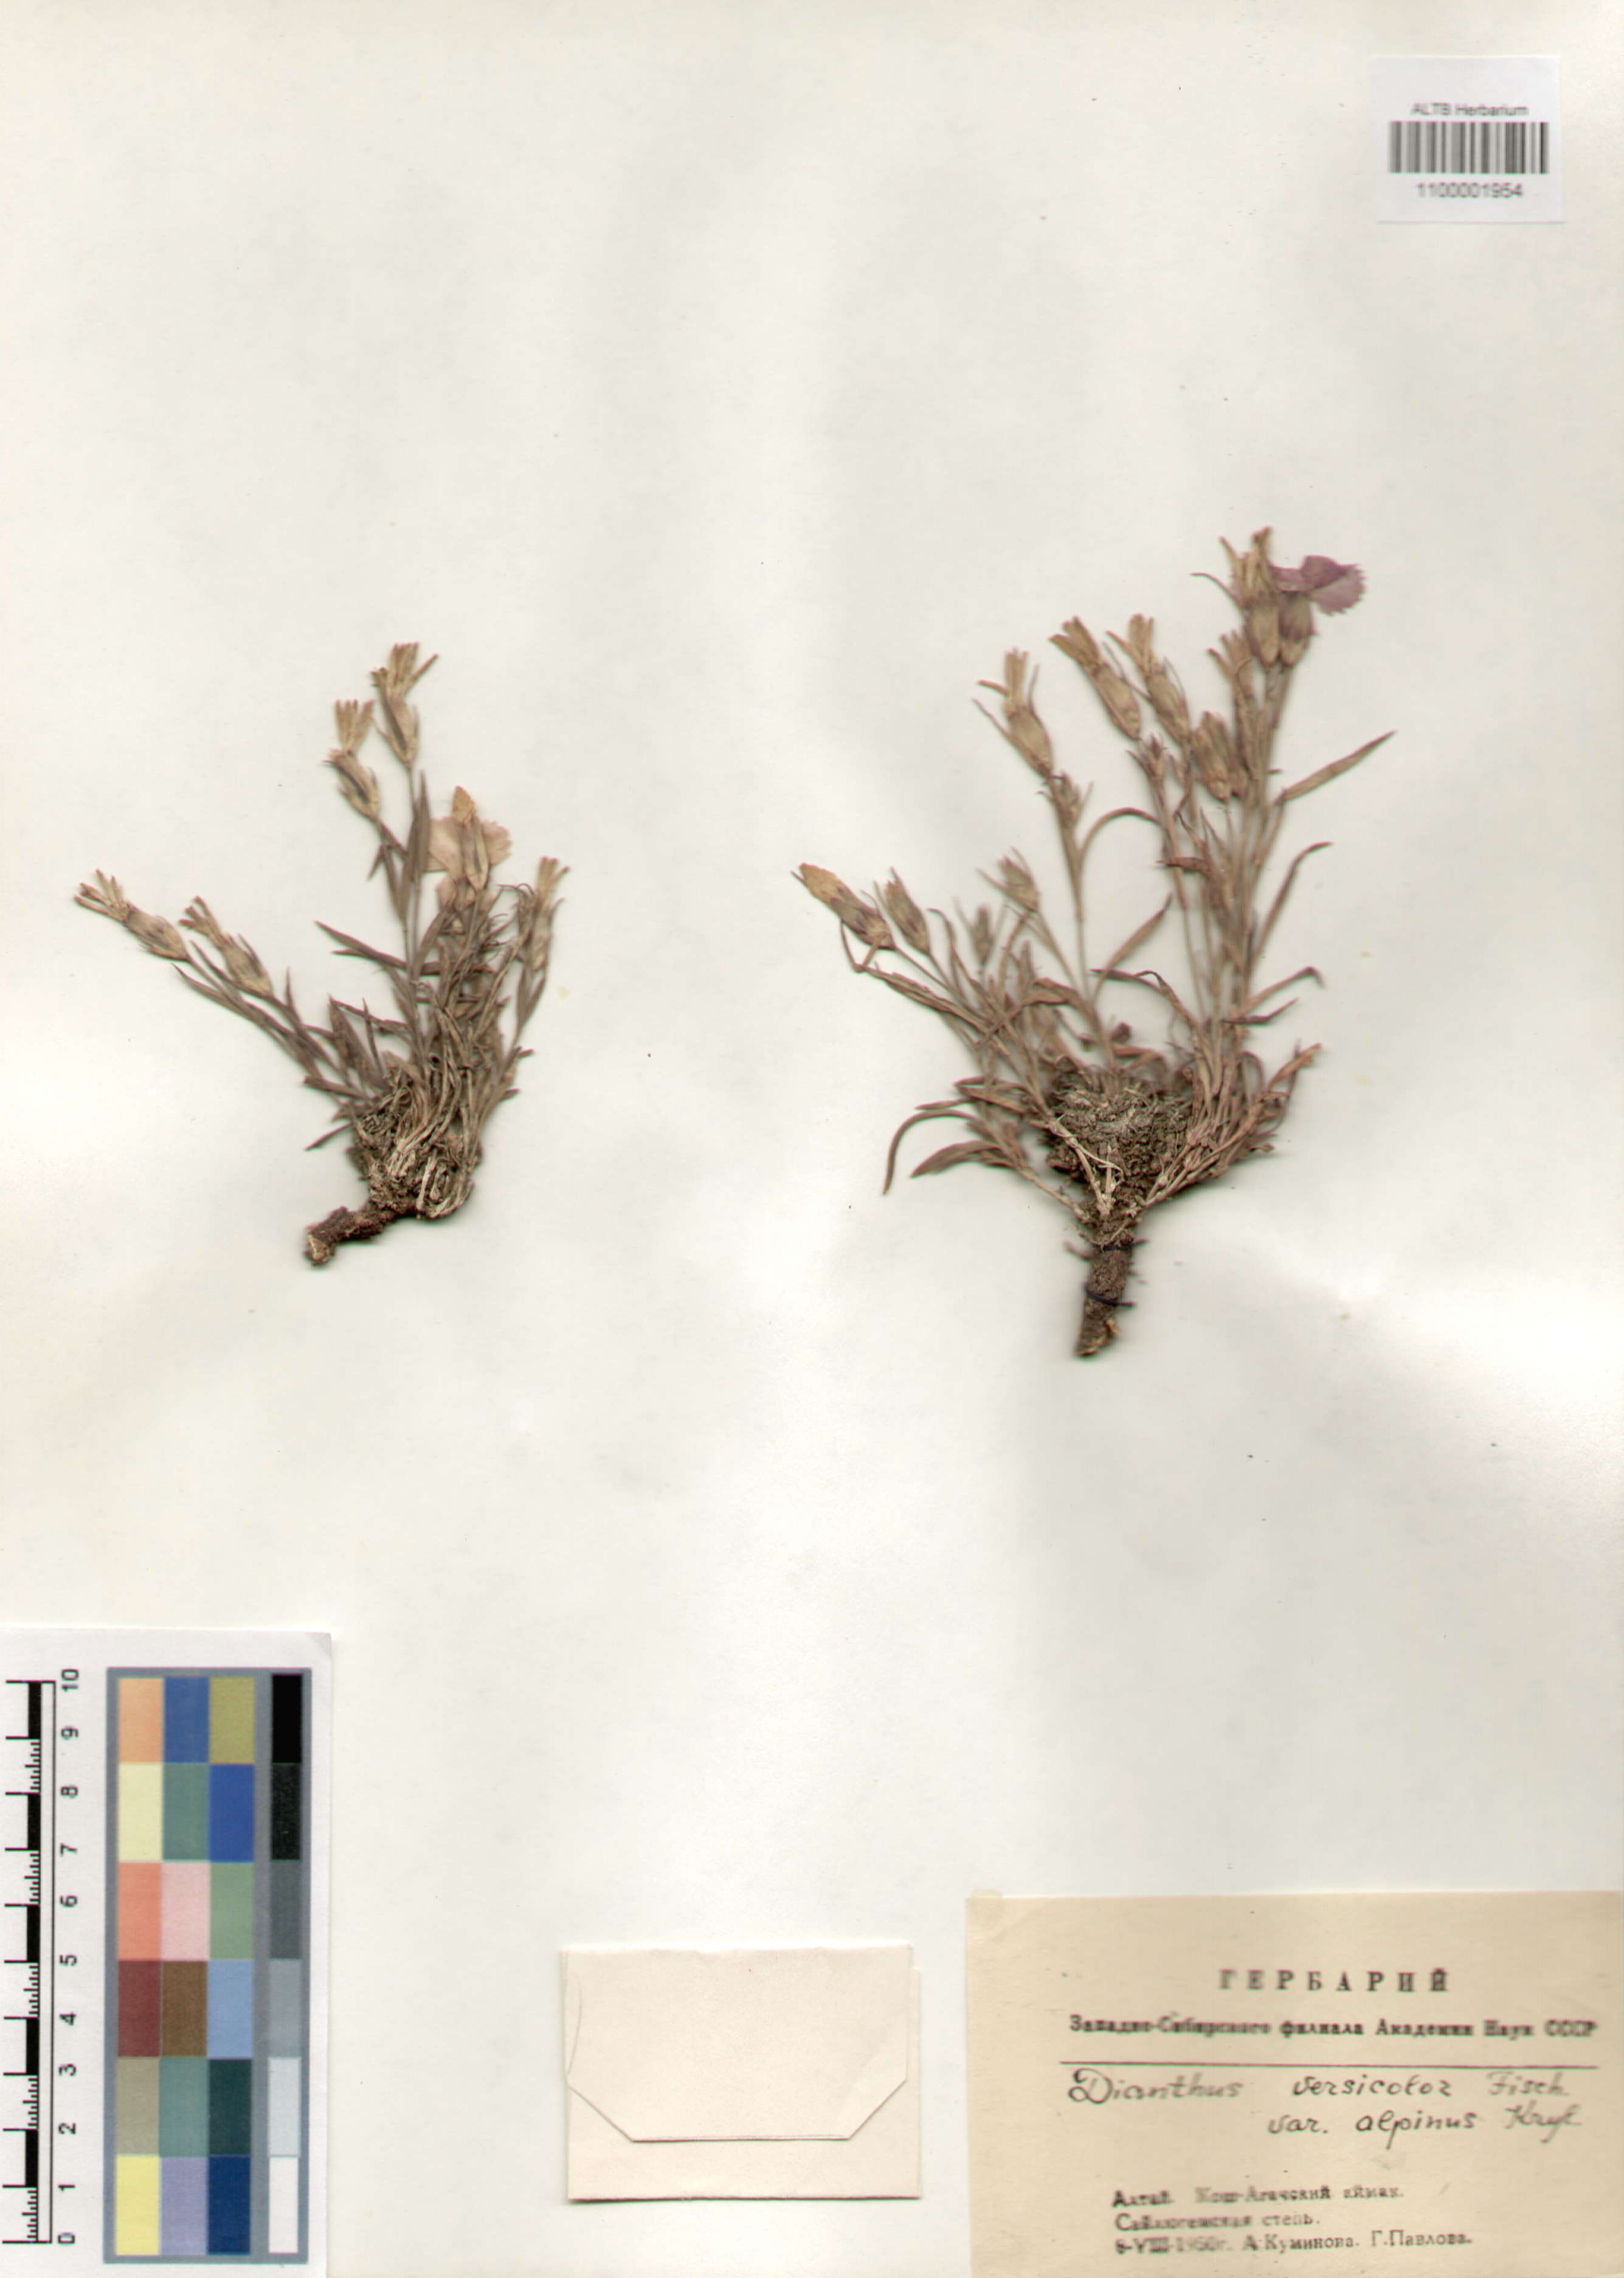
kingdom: Plantae
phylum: Tracheophyta
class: Magnoliopsida
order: Caryophyllales
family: Caryophyllaceae
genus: Dianthus
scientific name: Dianthus chinensis
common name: Rainbow pink
